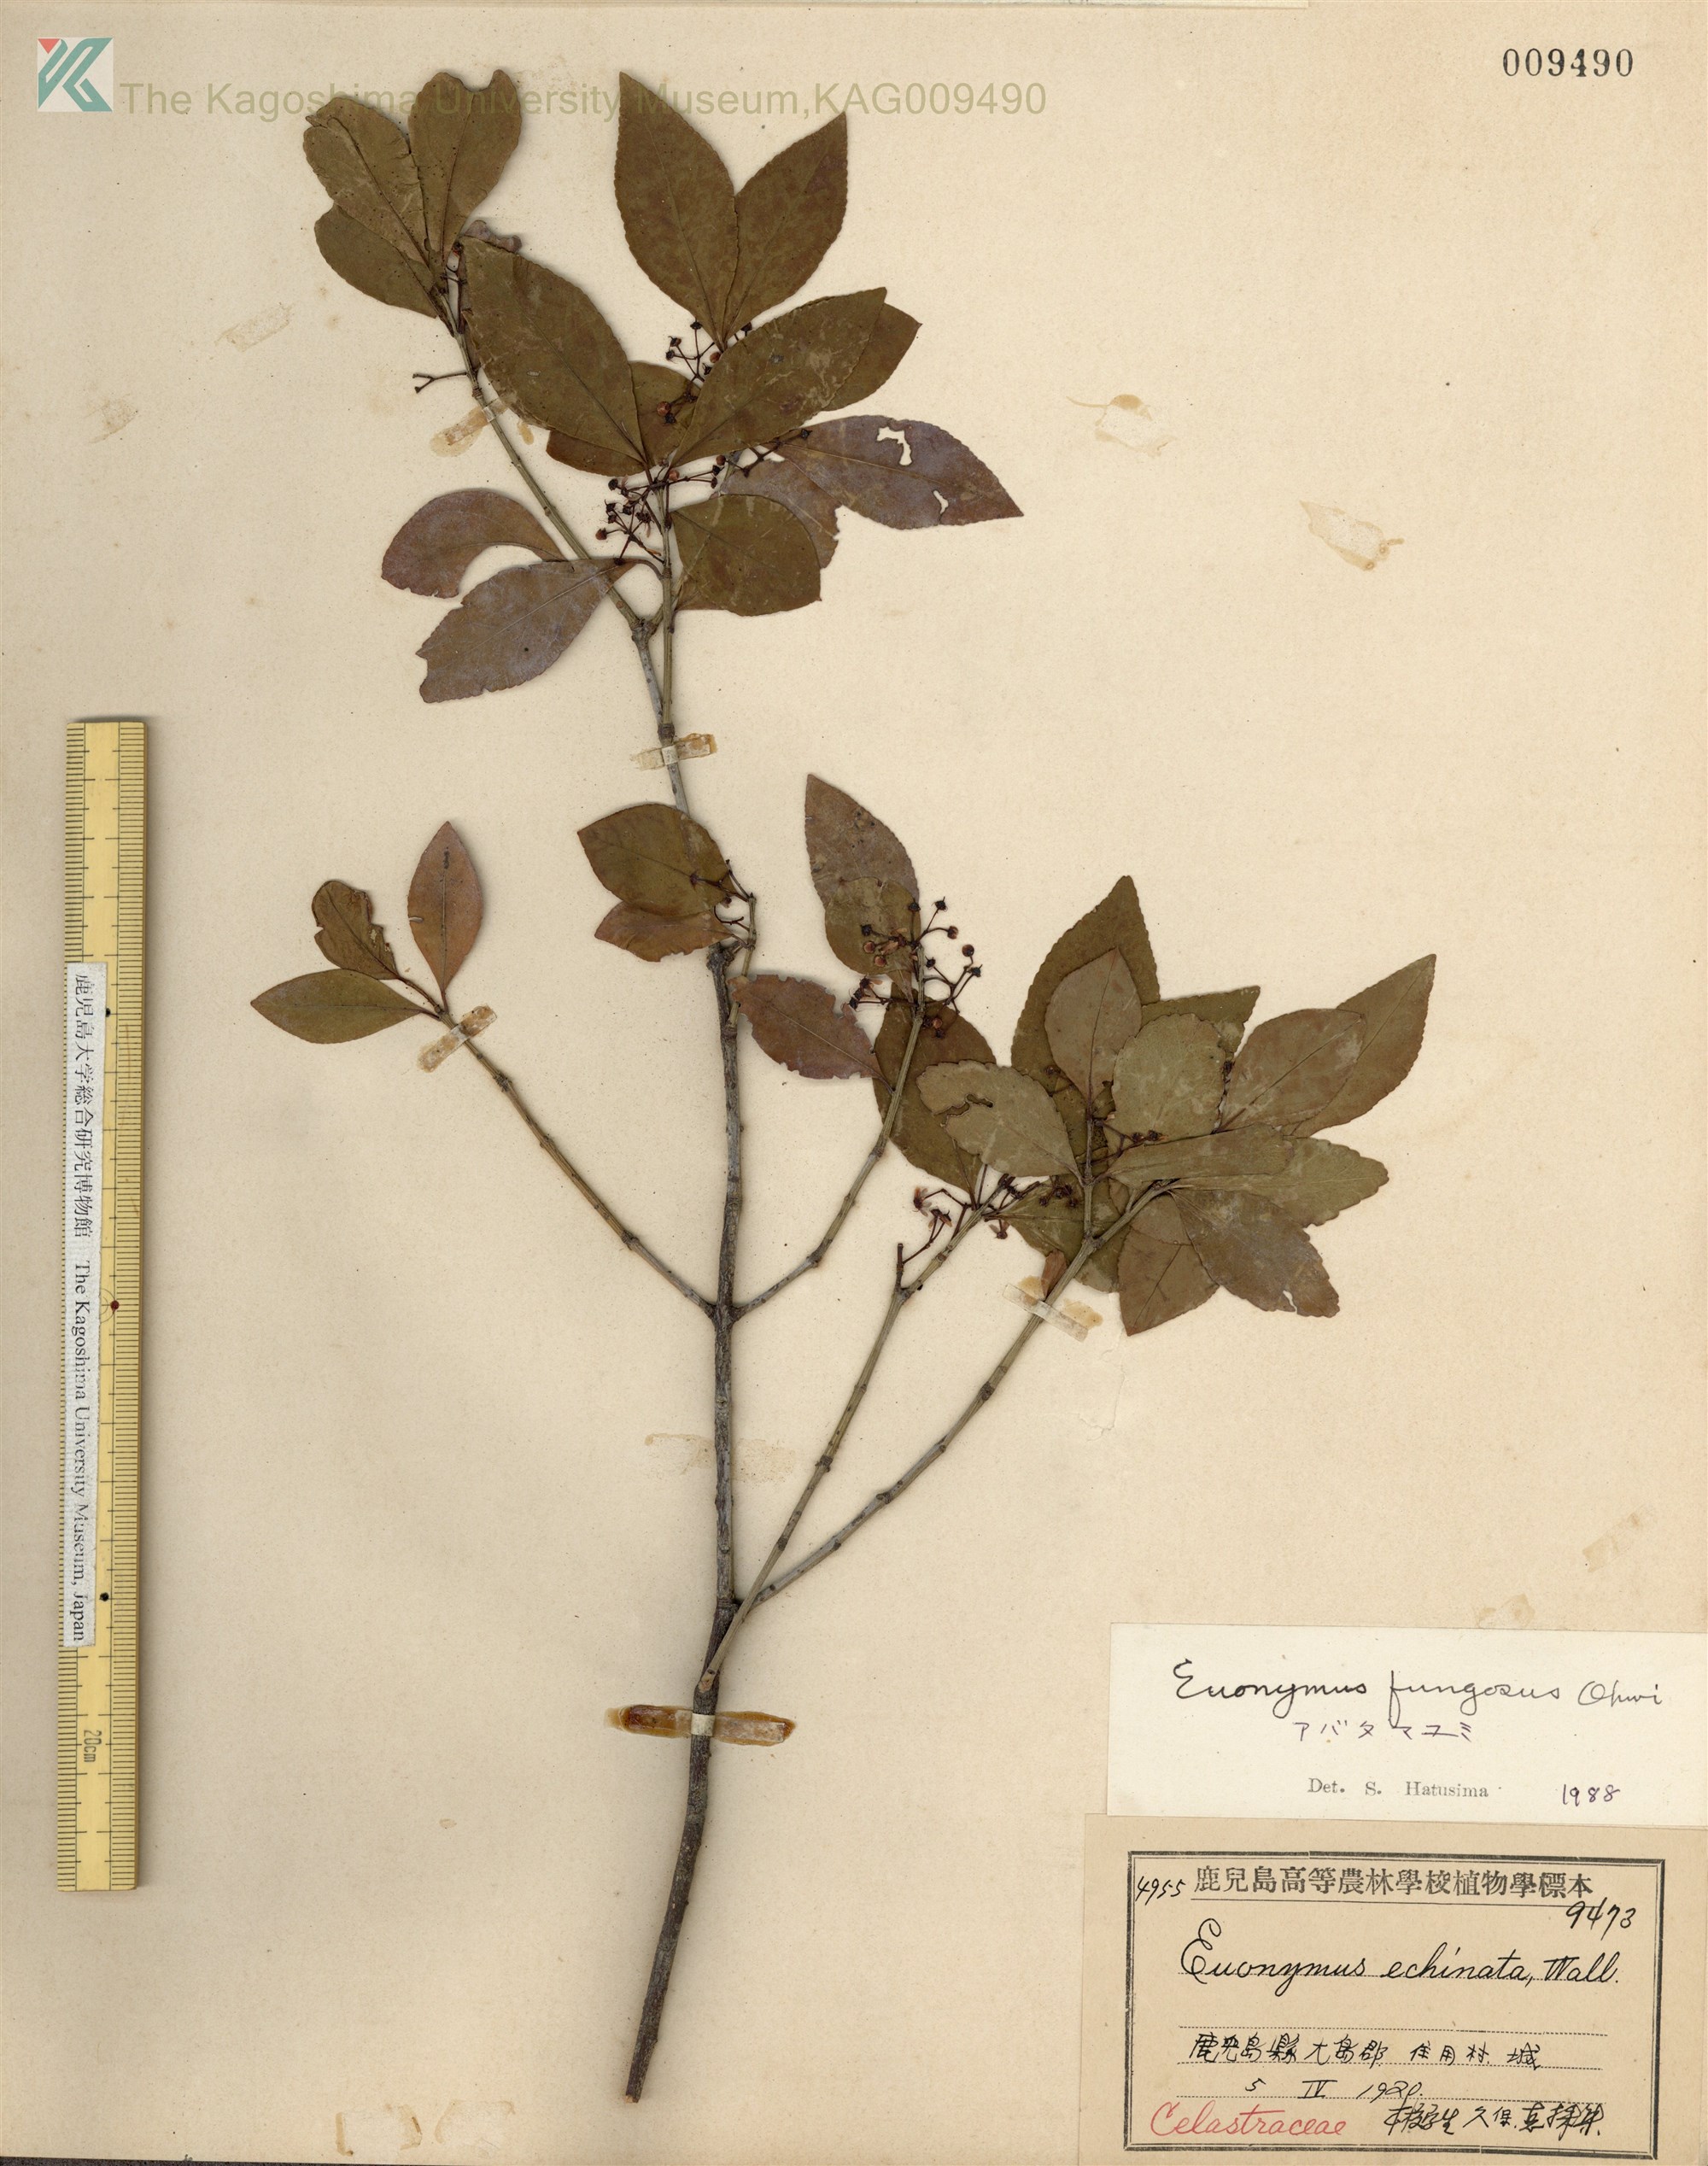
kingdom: Plantae
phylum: Tracheophyta
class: Magnoliopsida
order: Celastrales
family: Celastraceae
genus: Euonymus
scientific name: Euonymus echinatus
